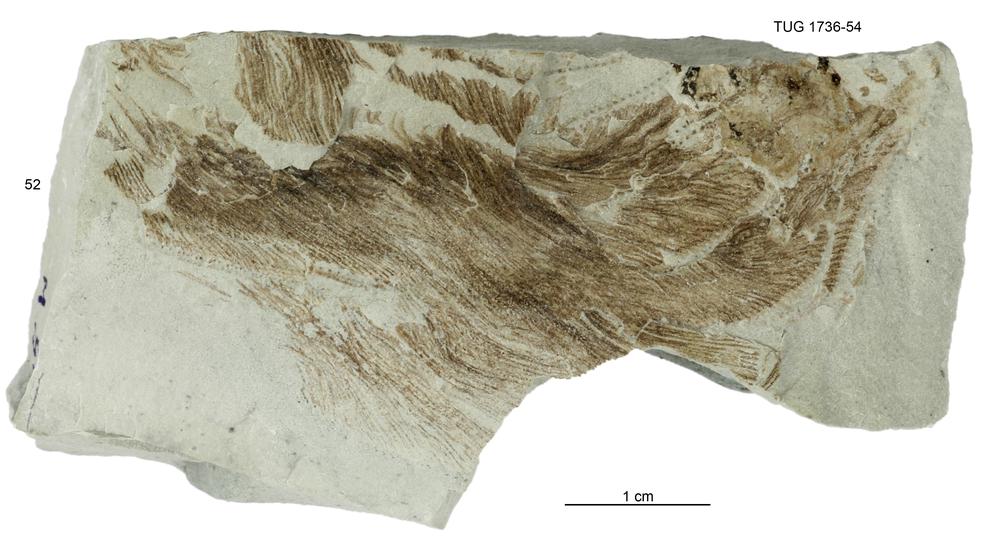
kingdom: Animalia
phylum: Echinodermata
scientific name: Echinodermata
